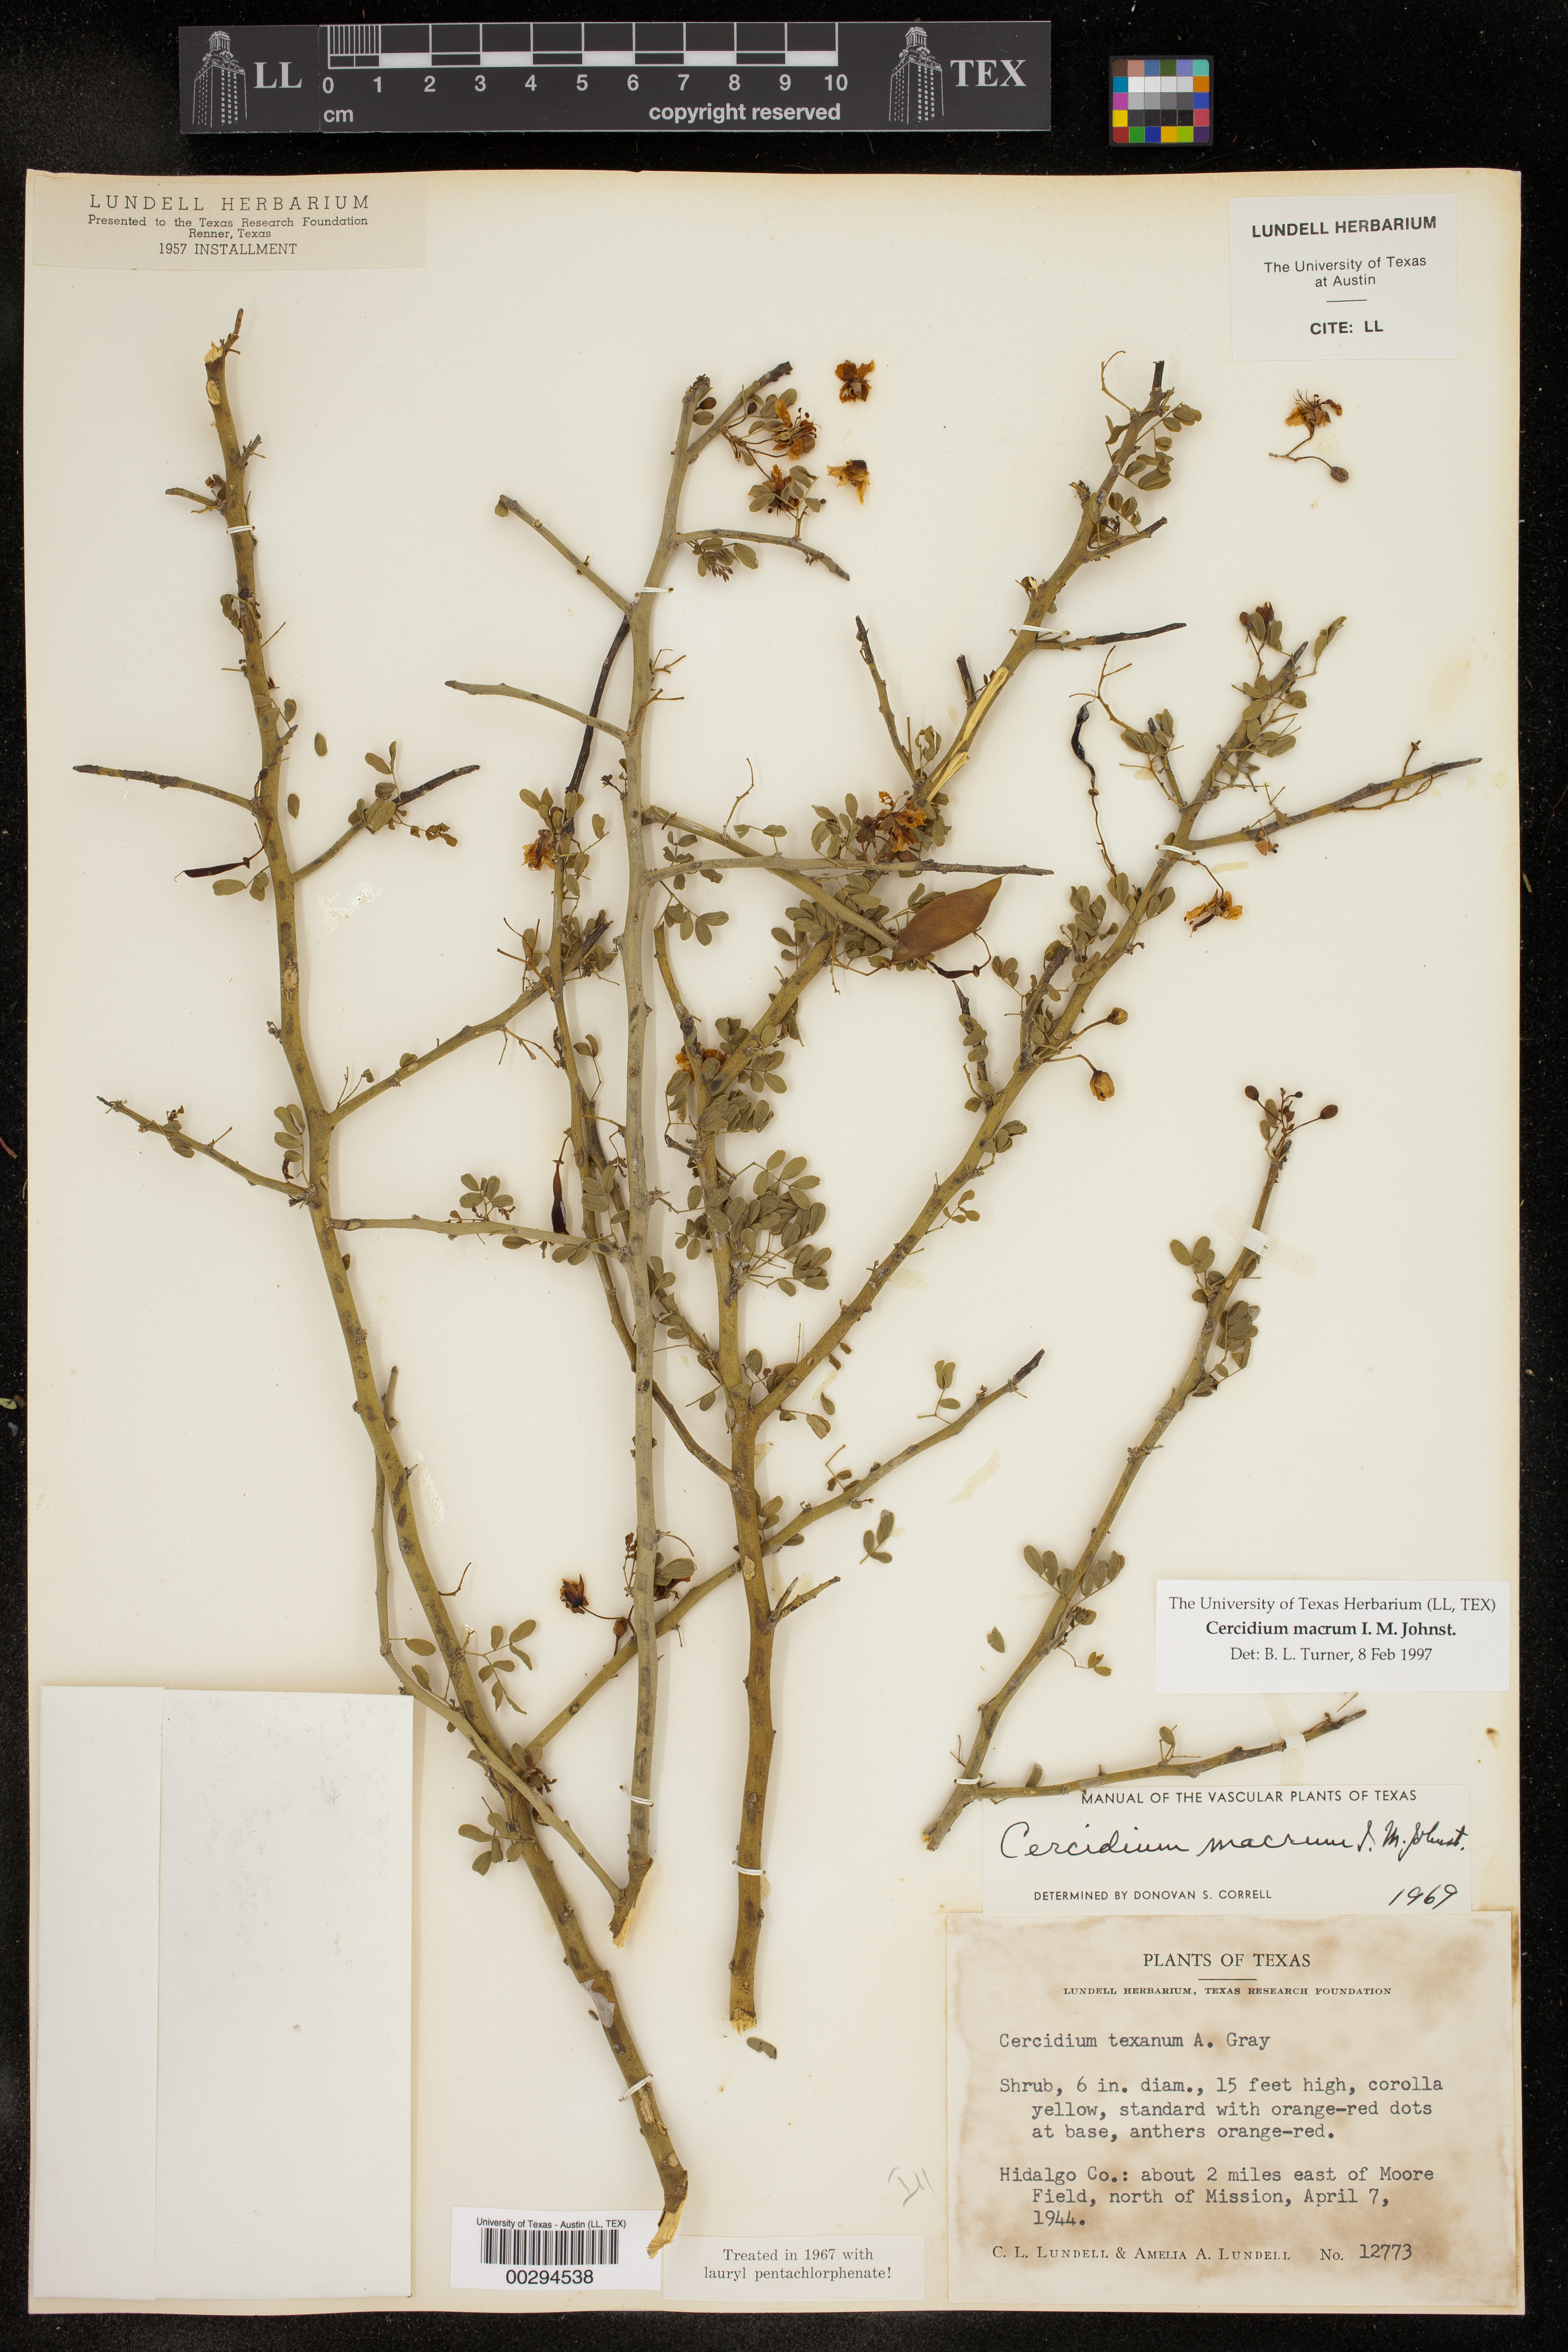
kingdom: Plantae
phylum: Tracheophyta
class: Magnoliopsida
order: Fabales
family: Fabaceae
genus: Parkinsonia
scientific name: Parkinsonia texana
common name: Texas paloverde
